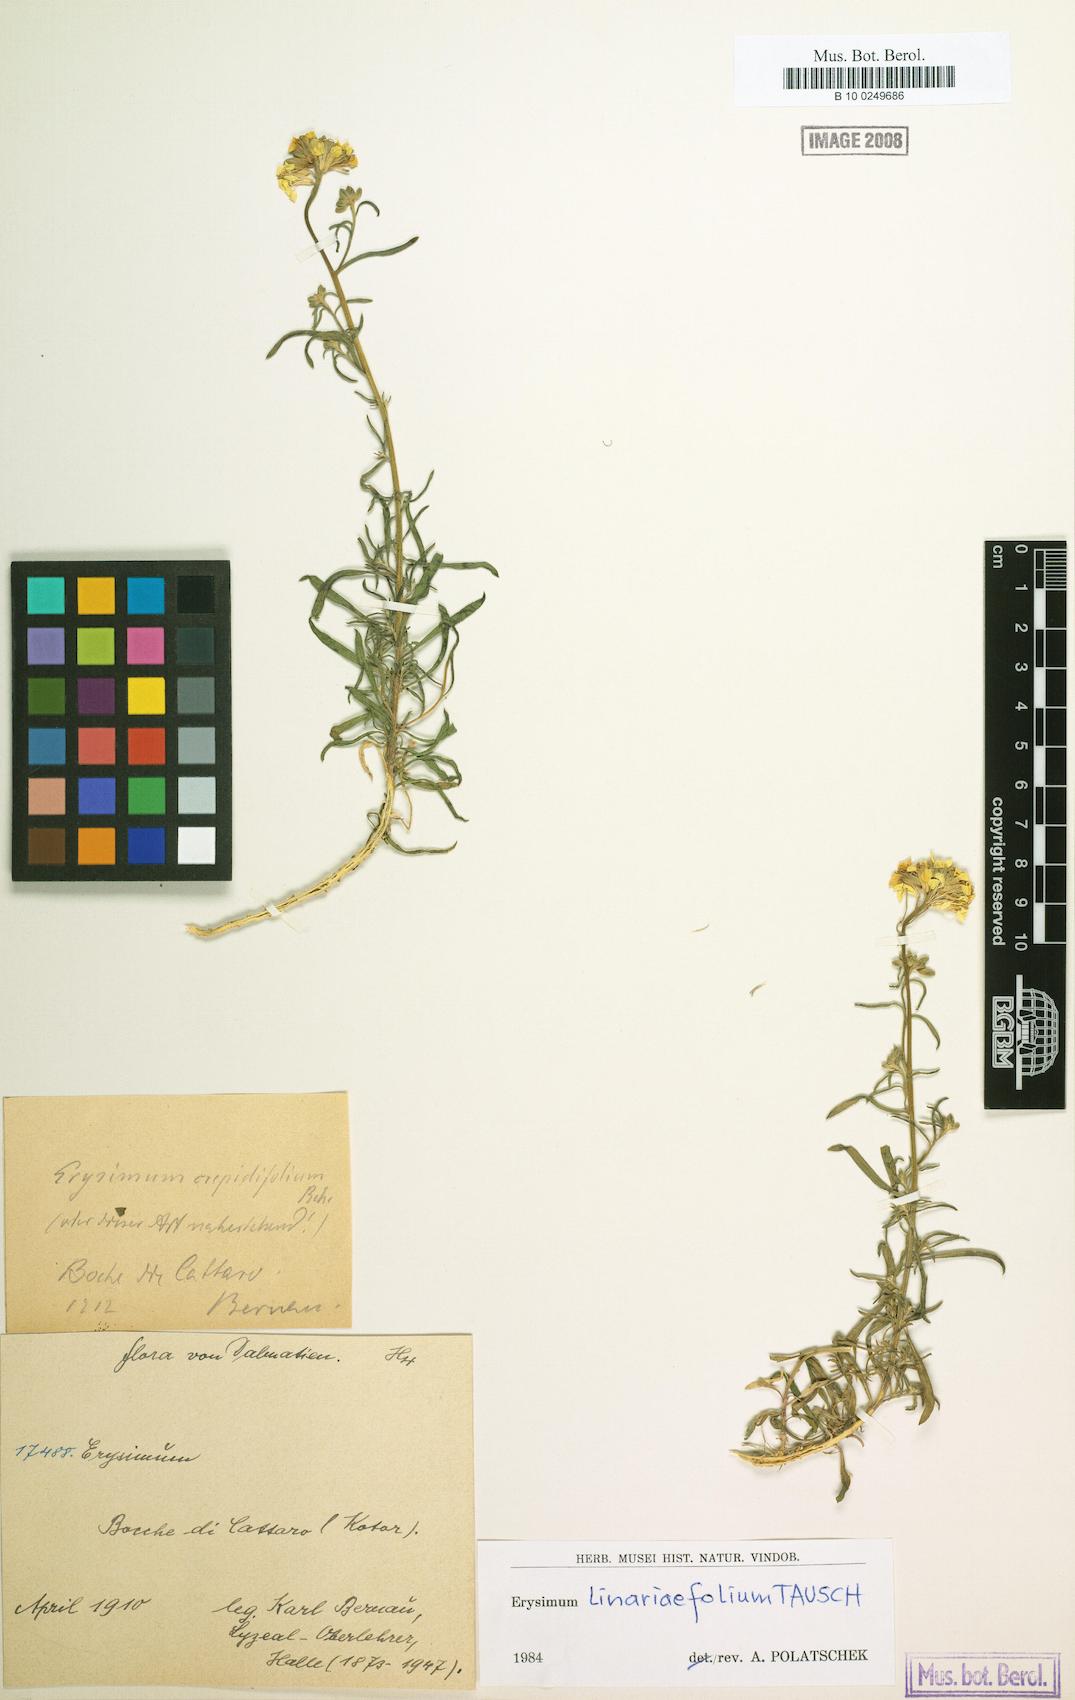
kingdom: Plantae
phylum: Tracheophyta
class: Magnoliopsida
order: Brassicales
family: Brassicaceae
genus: Erysimum
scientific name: Erysimum linariifolium
